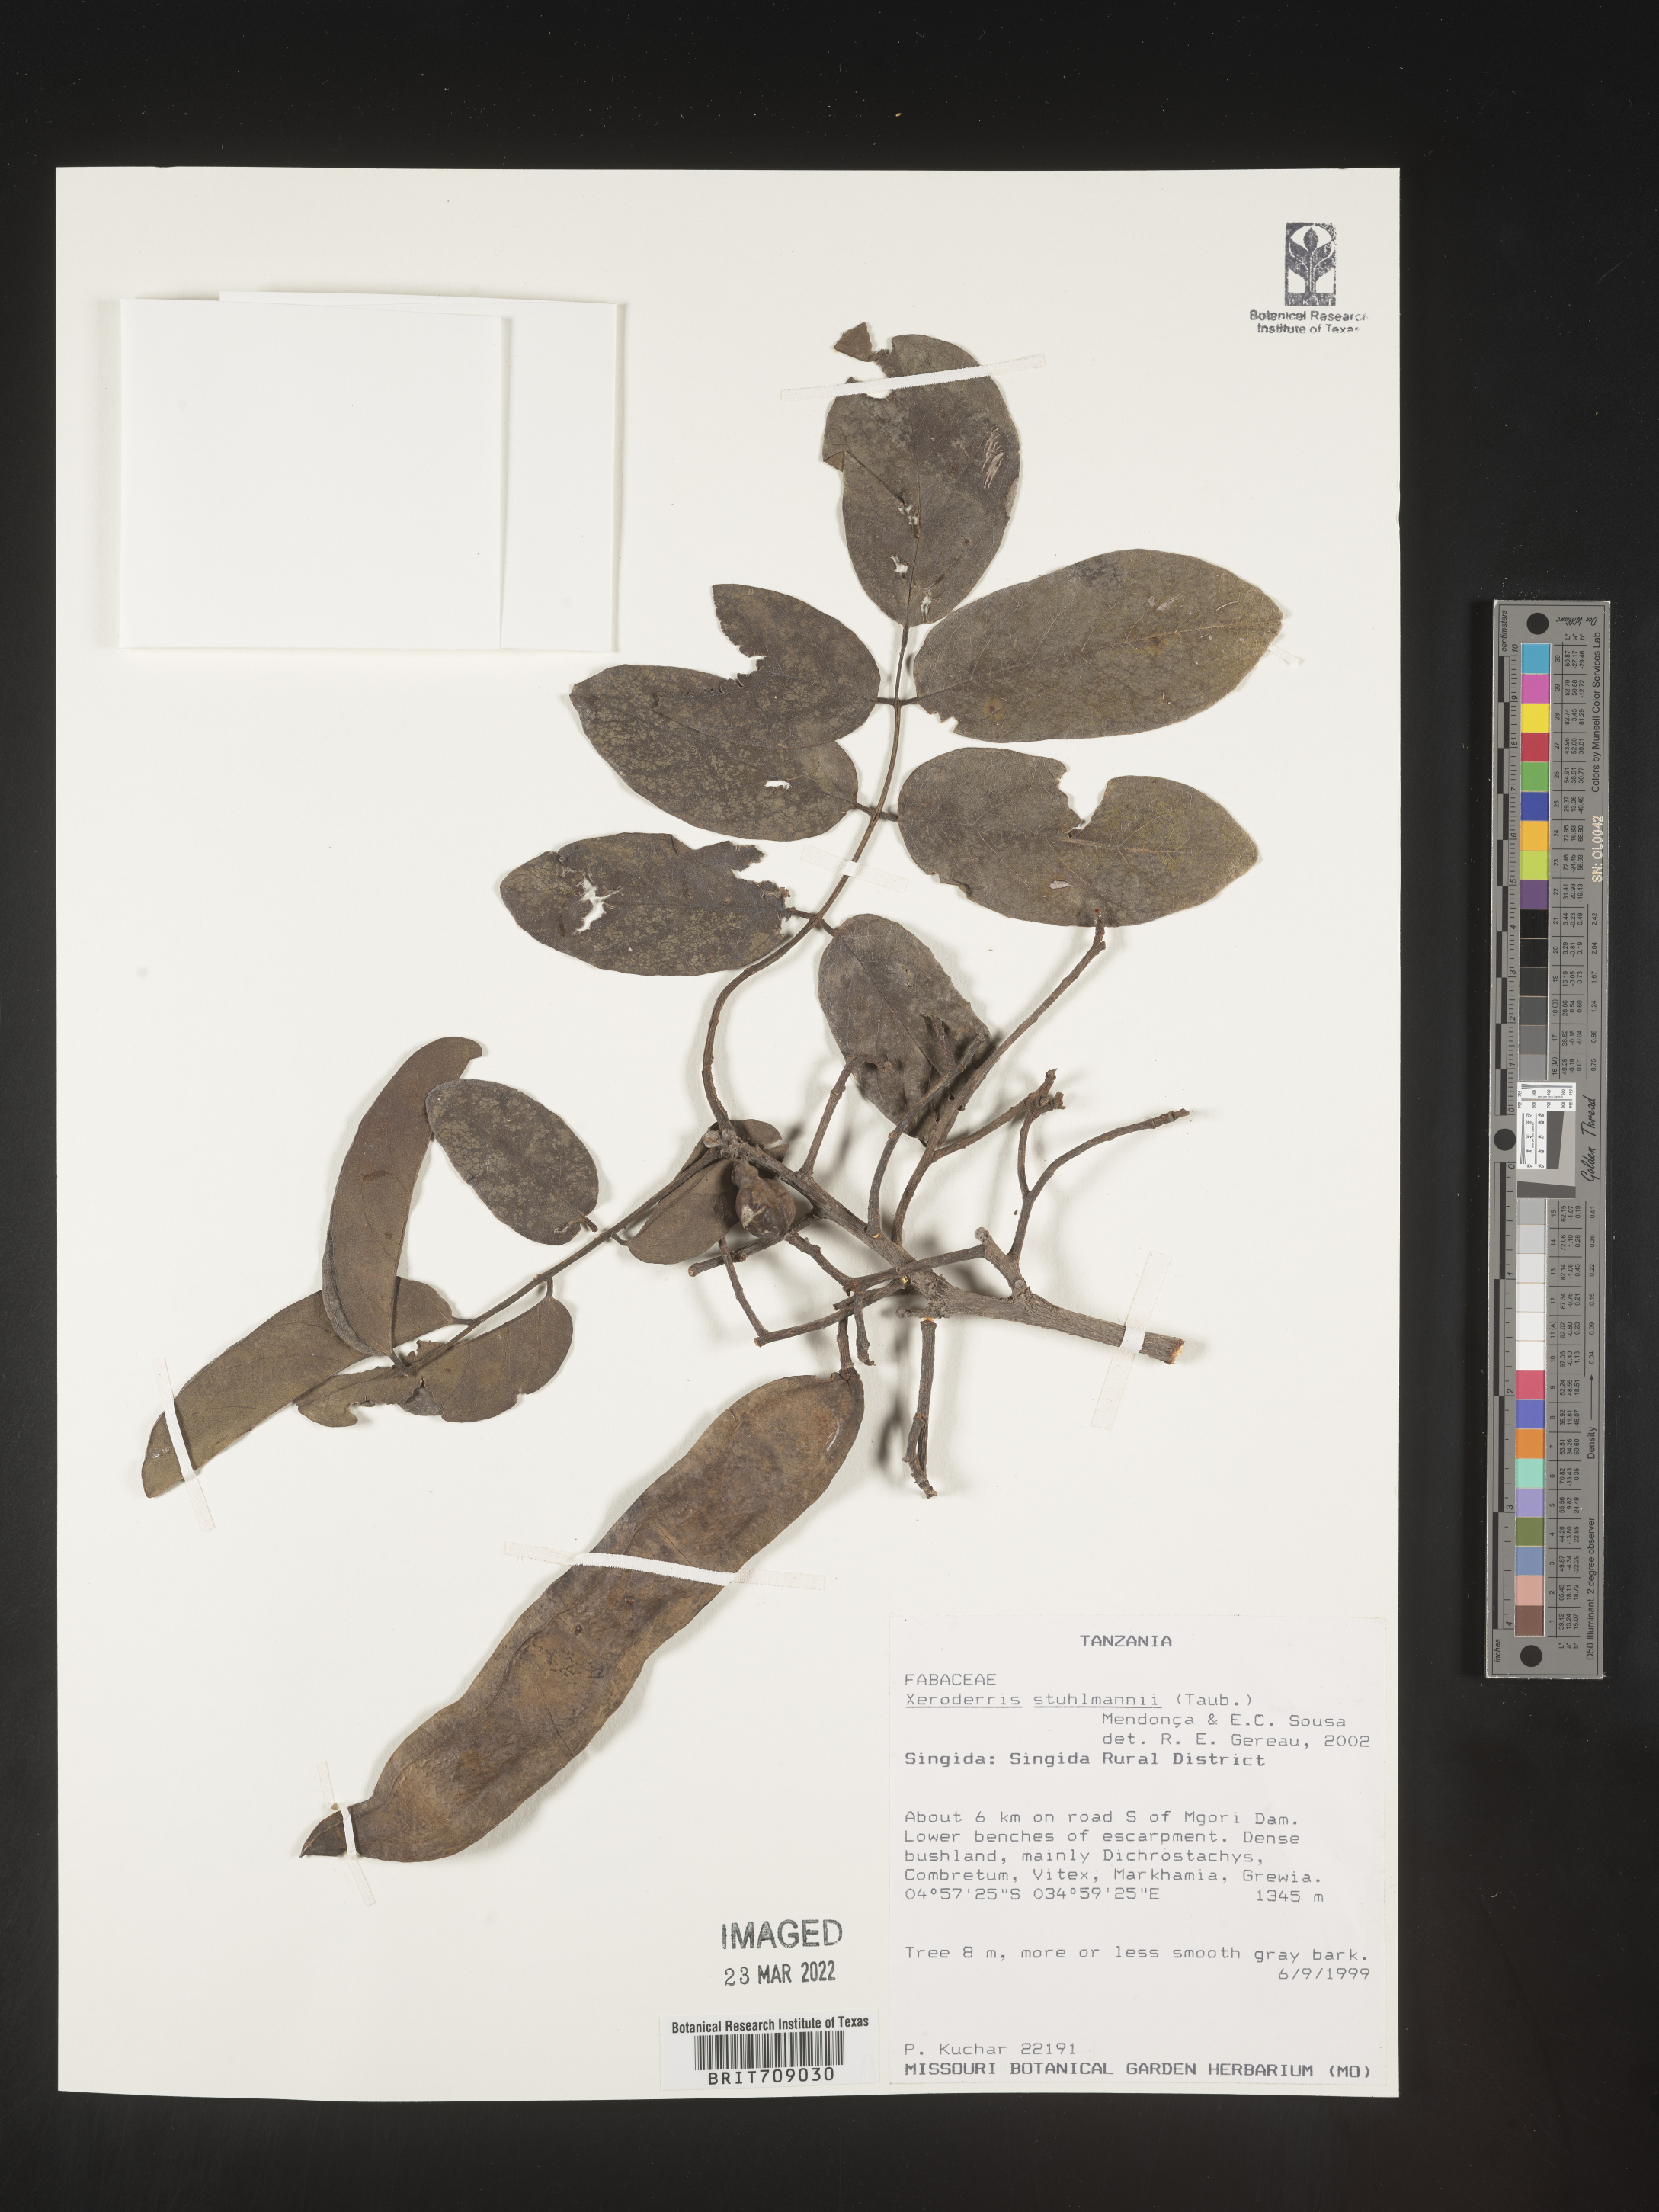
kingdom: Plantae
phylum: Tracheophyta
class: Magnoliopsida
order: Fabales
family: Fabaceae
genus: Aganope
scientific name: Aganope
